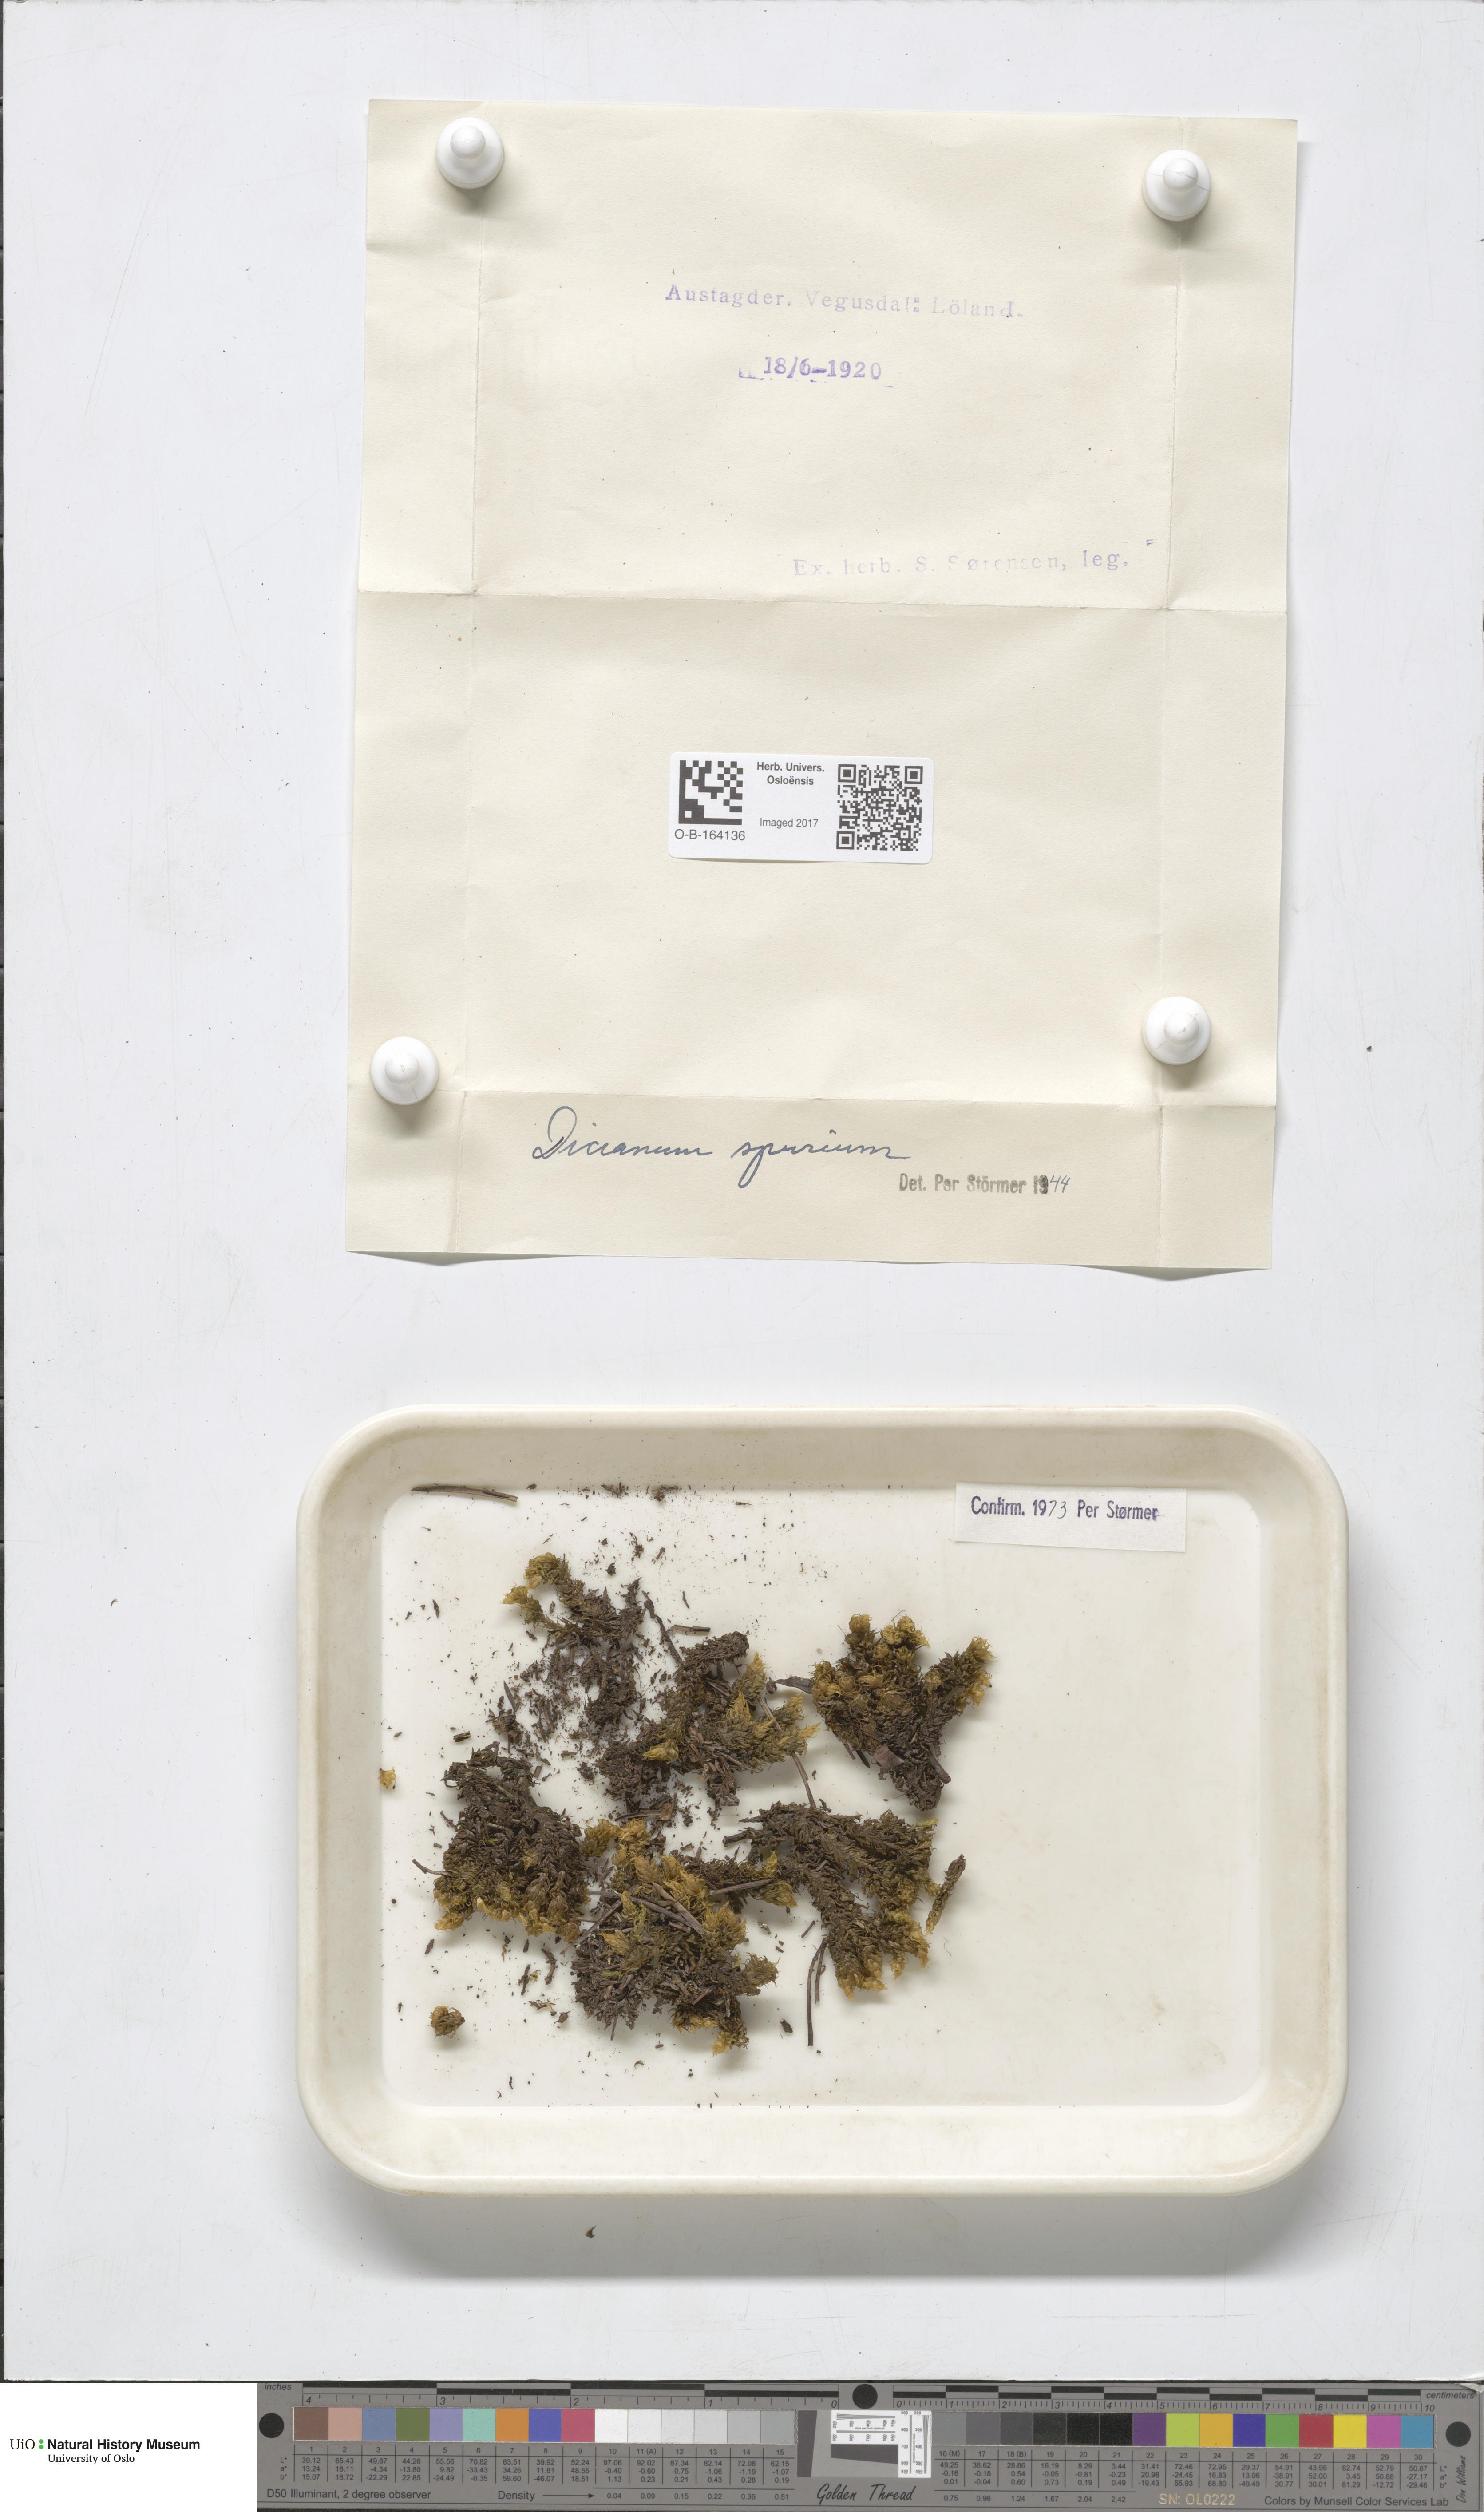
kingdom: Plantae
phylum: Bryophyta
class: Bryopsida
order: Dicranales
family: Dicranaceae
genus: Dicranum
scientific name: Dicranum spurium
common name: Spurred broom moss
